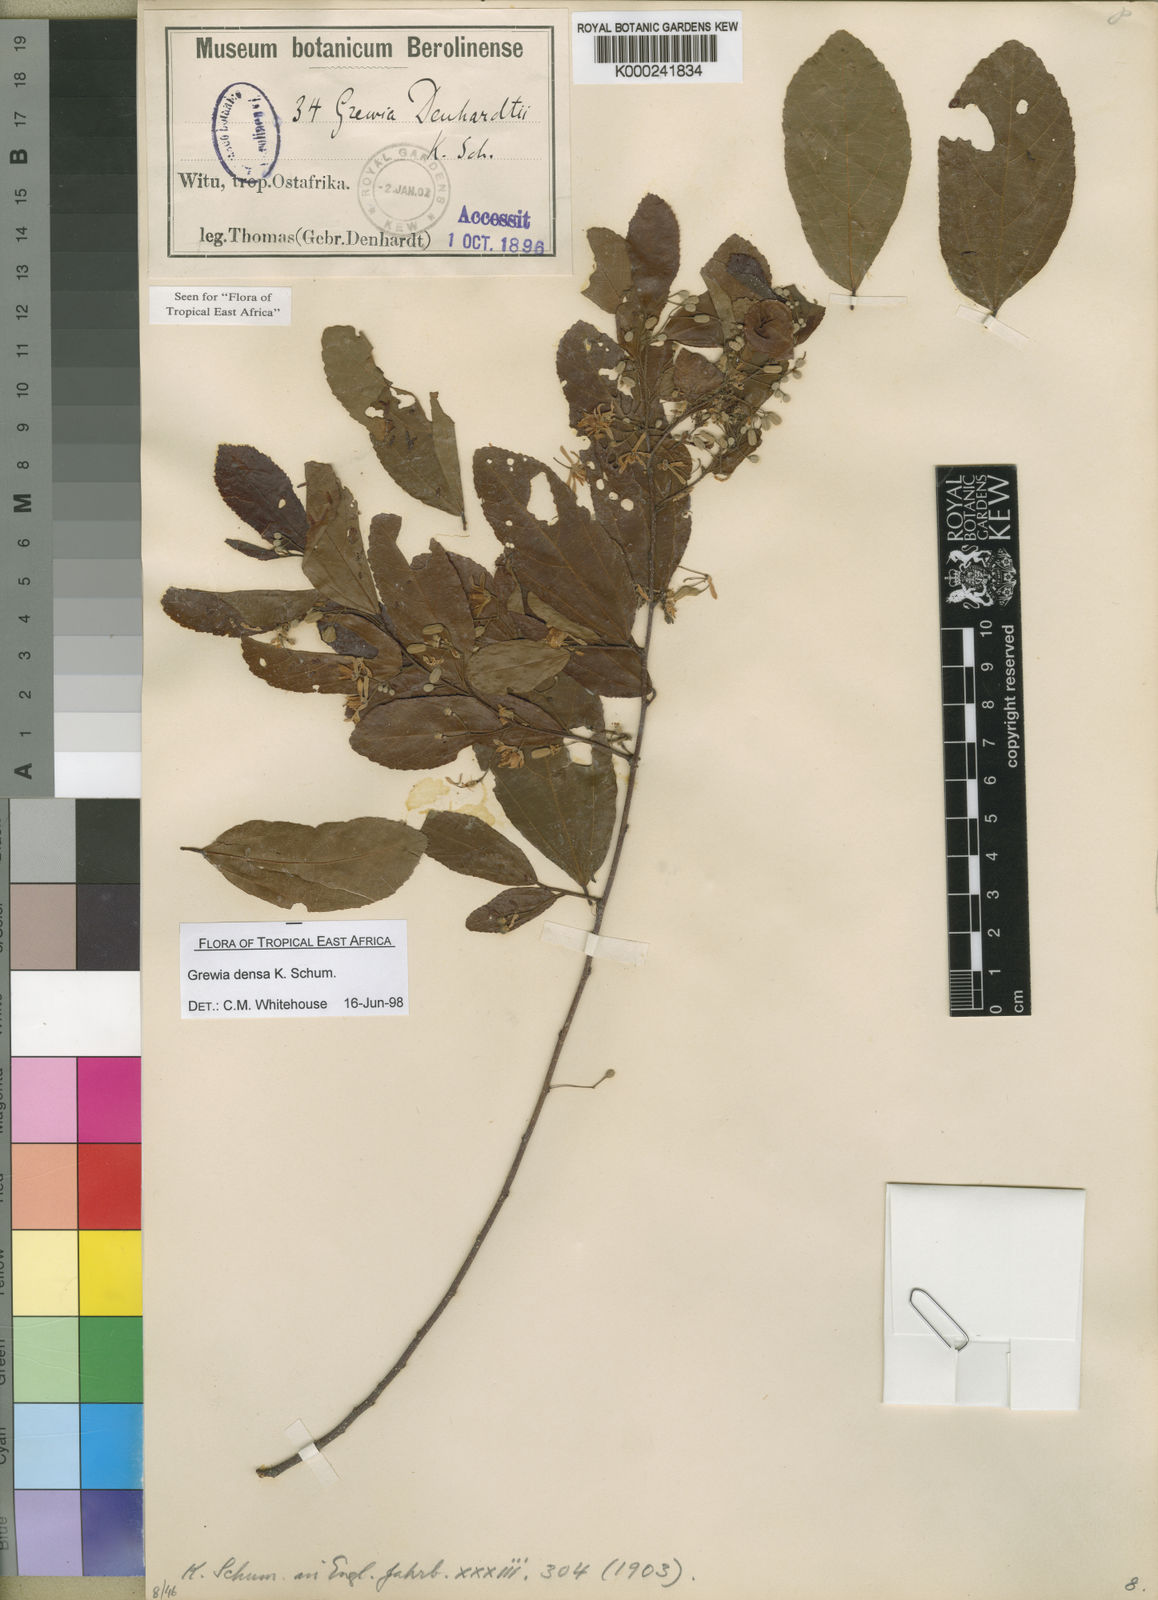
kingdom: Plantae
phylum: Tracheophyta
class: Magnoliopsida
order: Malvales
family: Malvaceae
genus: Grewia
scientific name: Grewia densa
